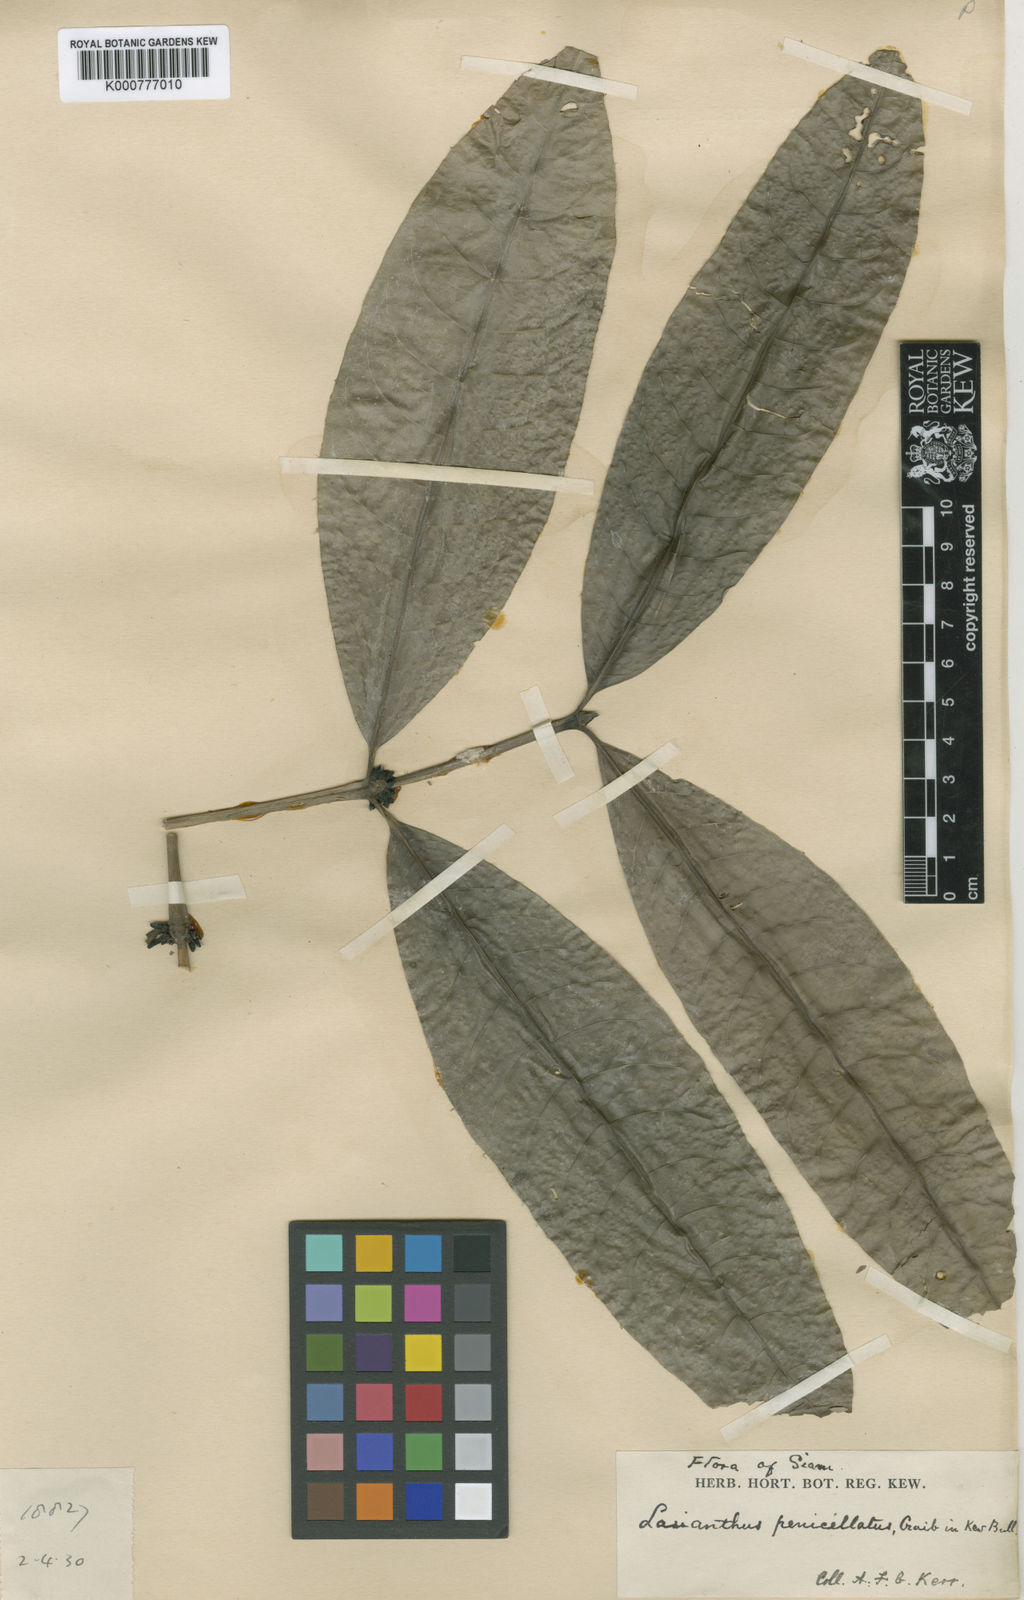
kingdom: Plantae
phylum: Tracheophyta
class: Magnoliopsida
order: Gentianales
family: Rubiaceae
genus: Lasianthus
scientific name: Lasianthus repoeuensis
